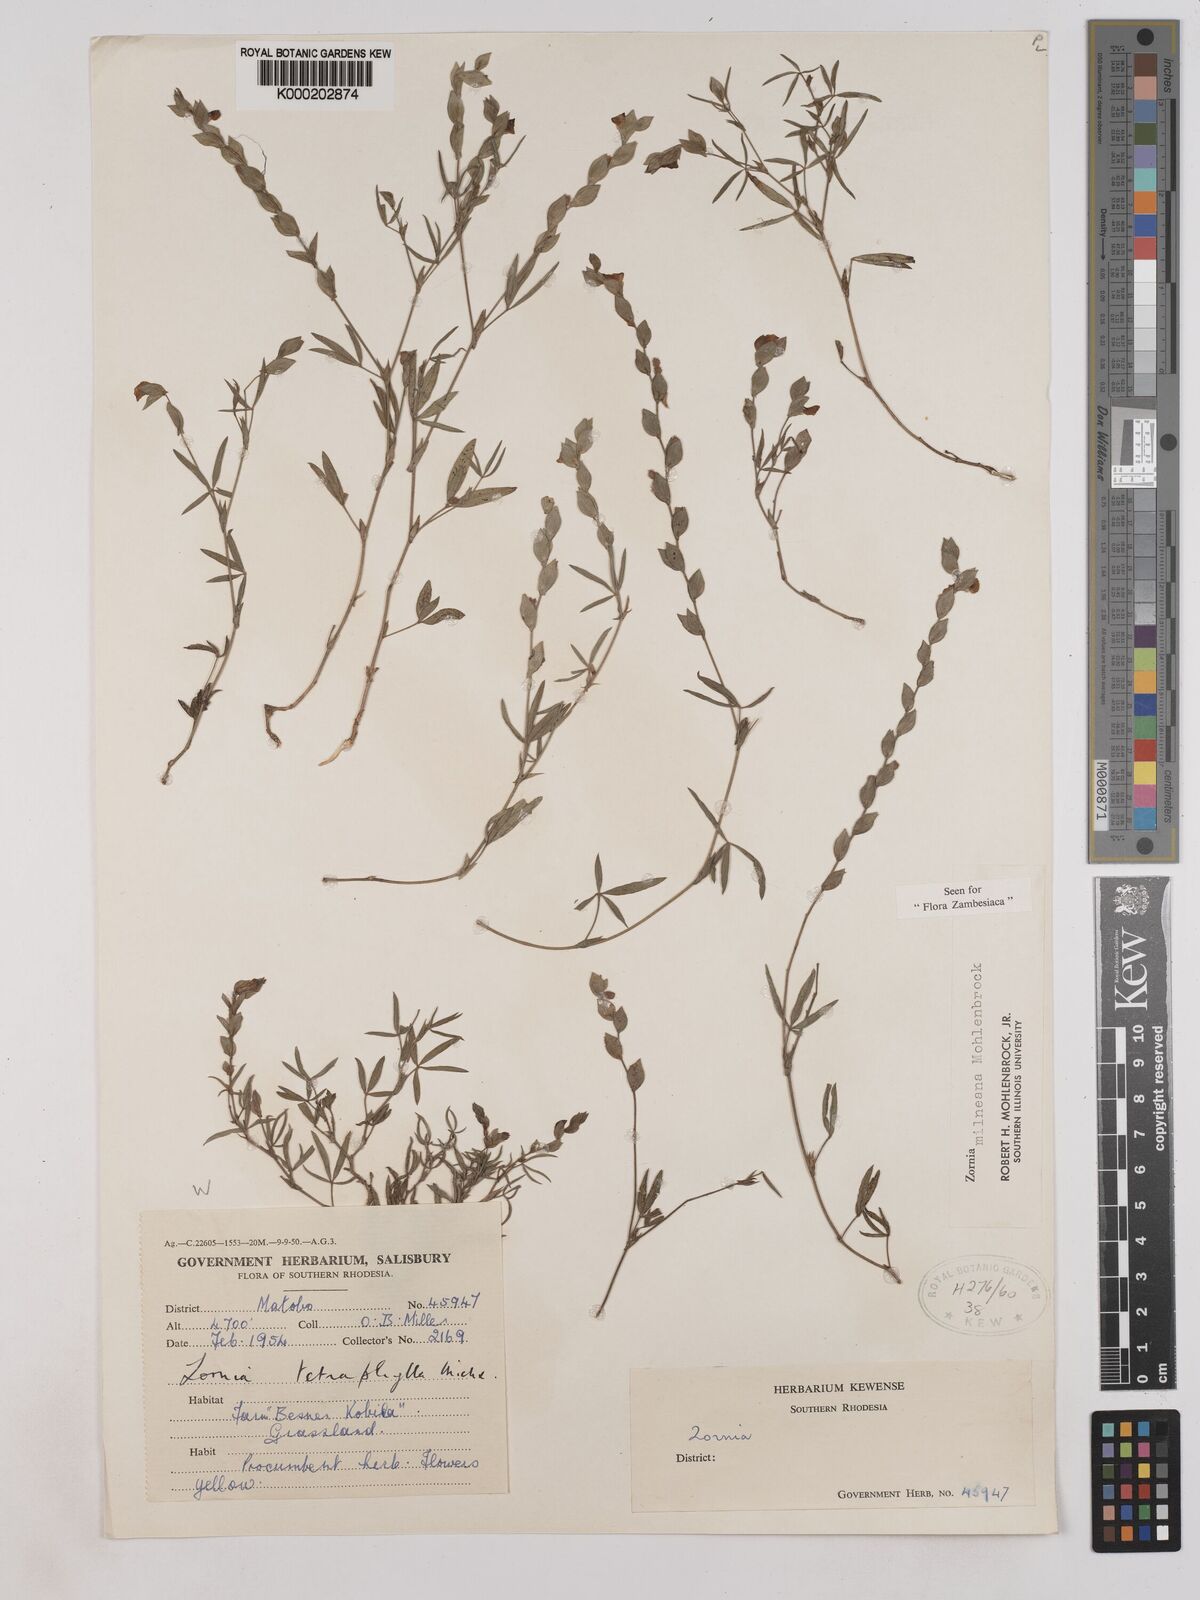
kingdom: Plantae
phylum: Tracheophyta
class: Magnoliopsida
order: Fabales
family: Fabaceae
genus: Zornia
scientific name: Zornia milneana
